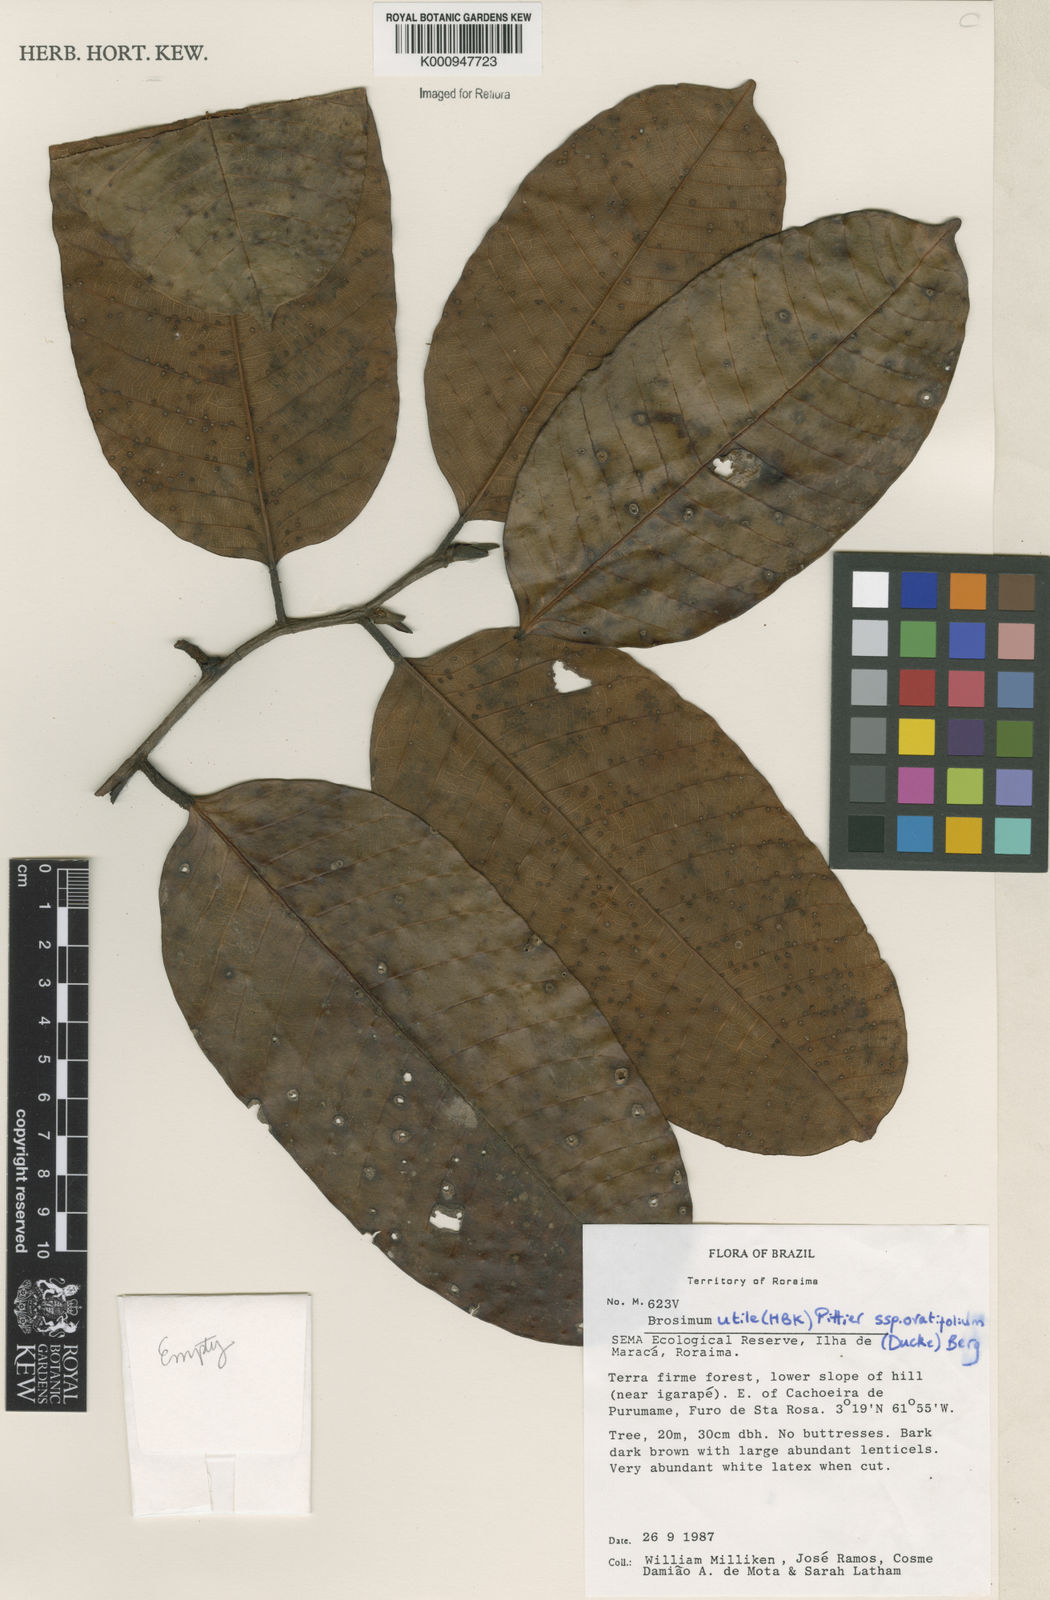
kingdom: Plantae
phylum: Tracheophyta
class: Magnoliopsida
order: Rosales
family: Moraceae
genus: Brosimum
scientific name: Brosimum utile
